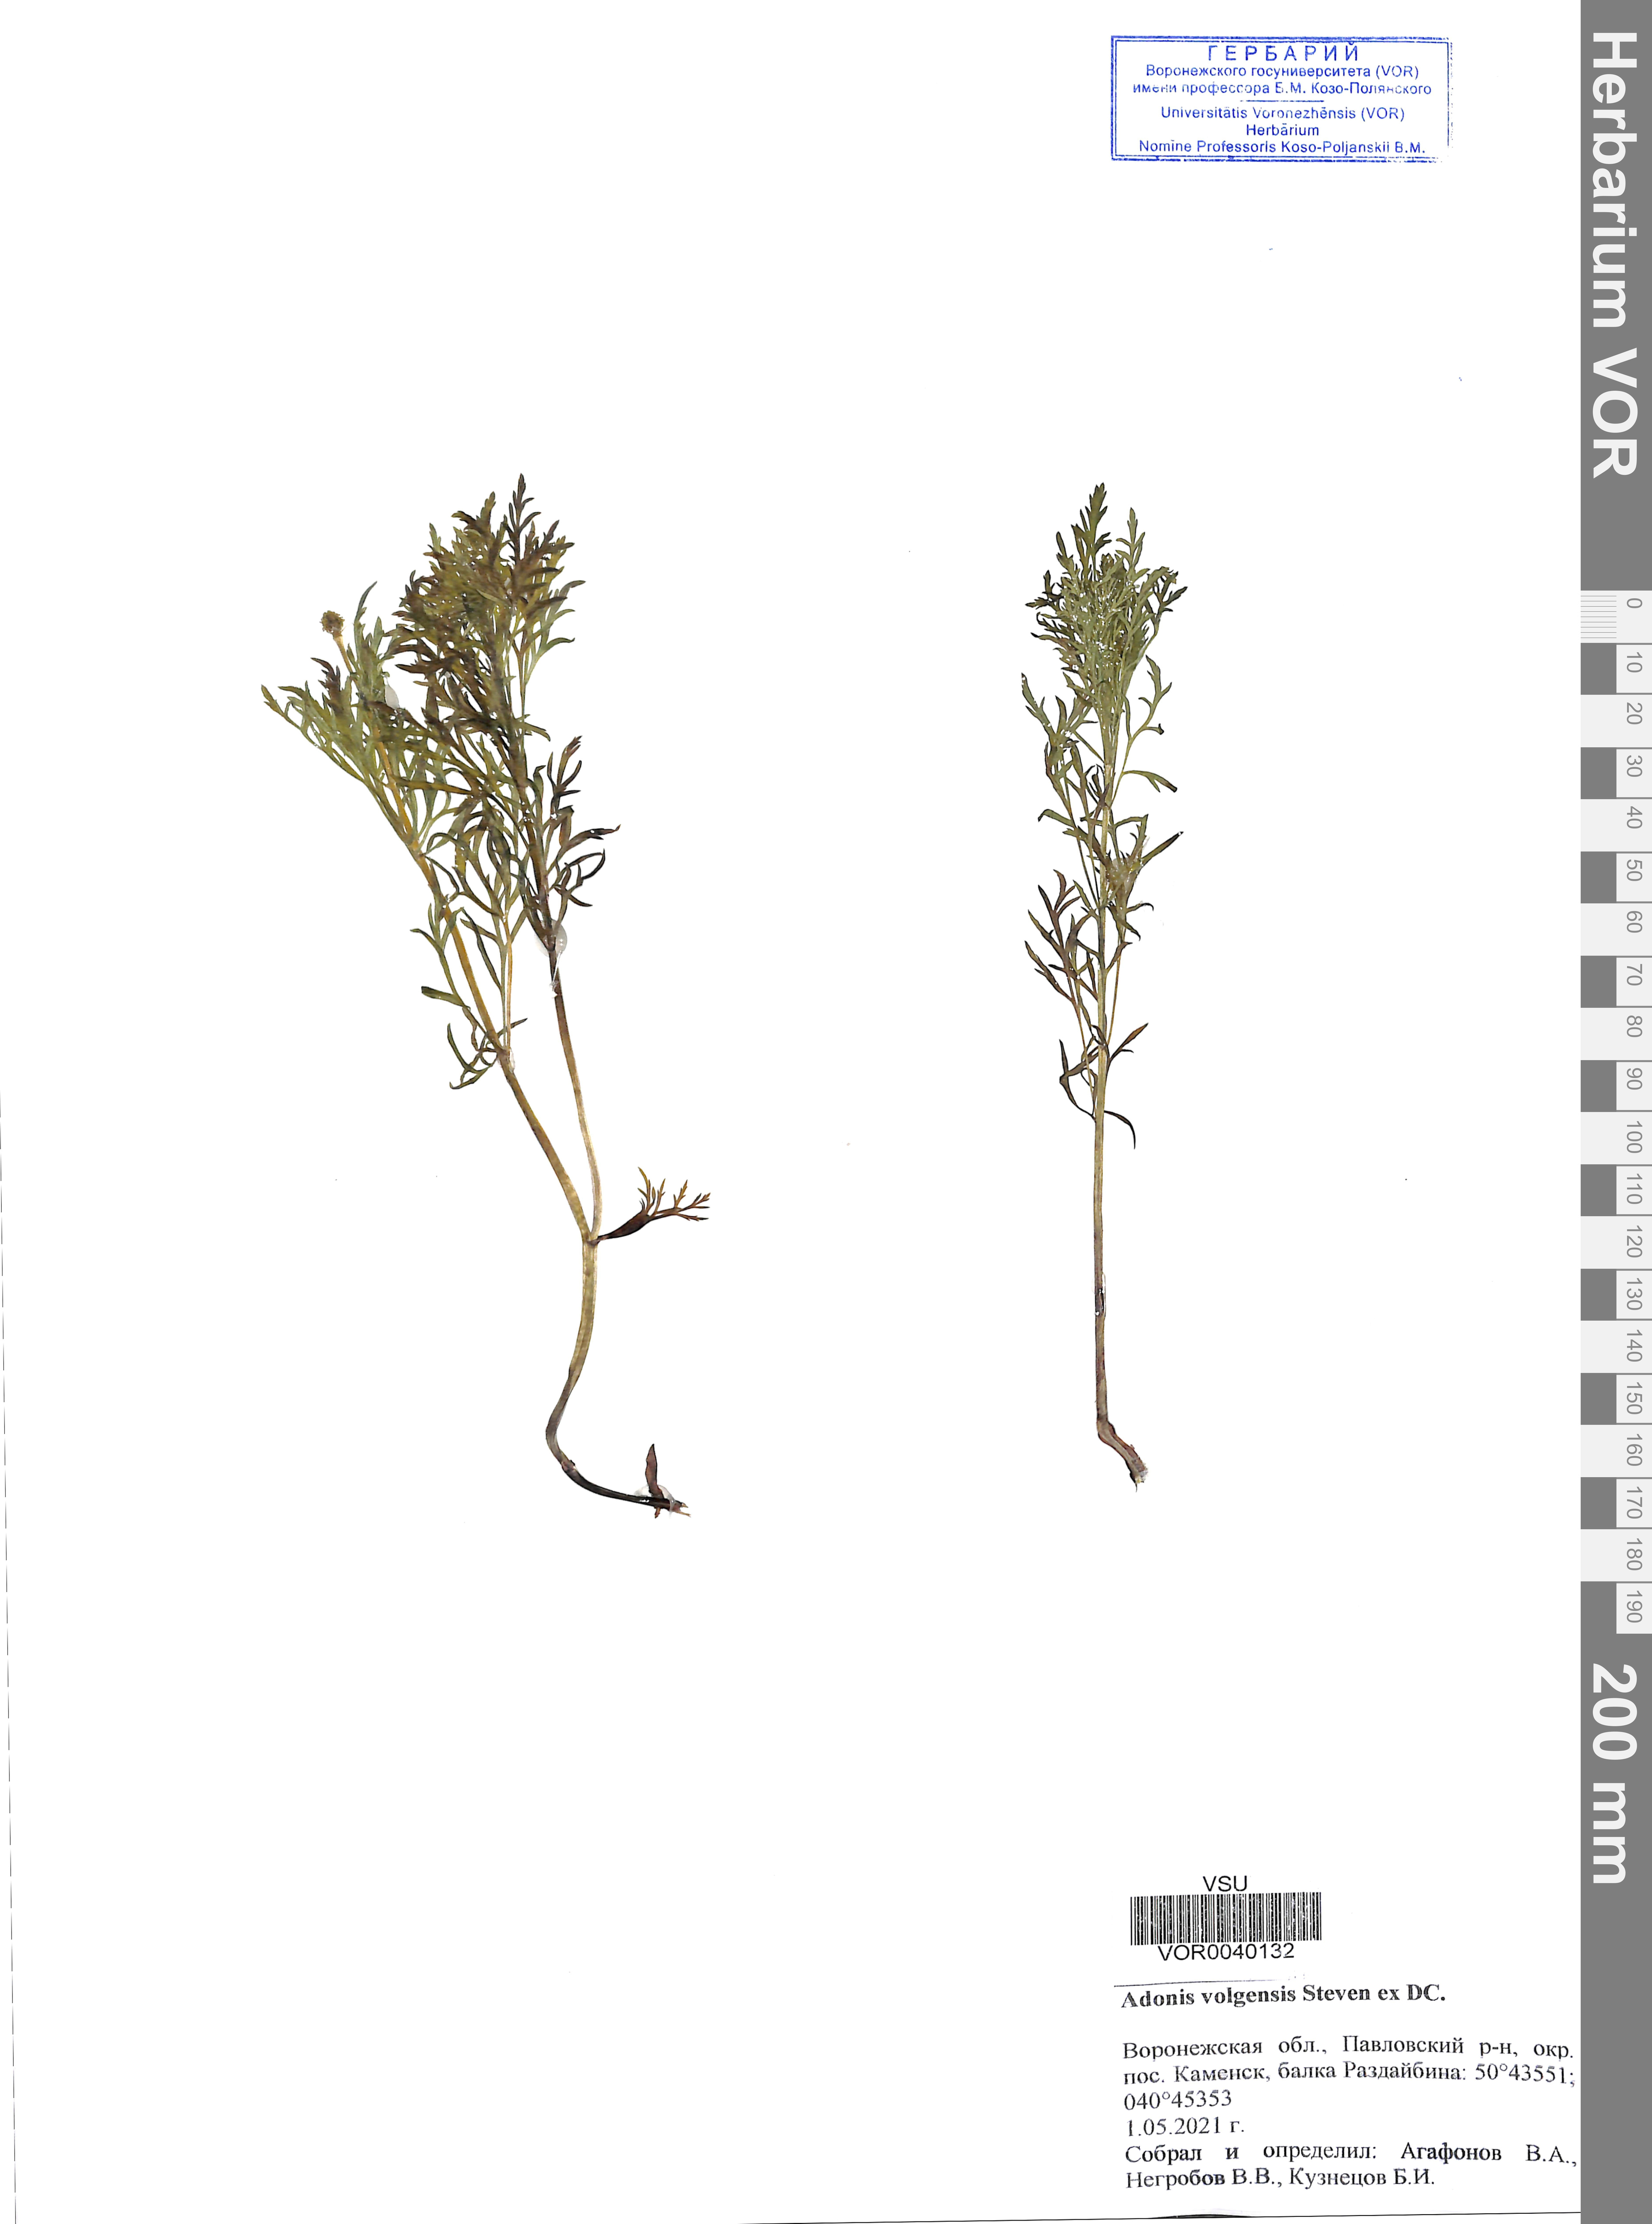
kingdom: Plantae
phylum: Tracheophyta
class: Magnoliopsida
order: Ranunculales
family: Ranunculaceae
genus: Adonis
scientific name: Adonis volgensis
